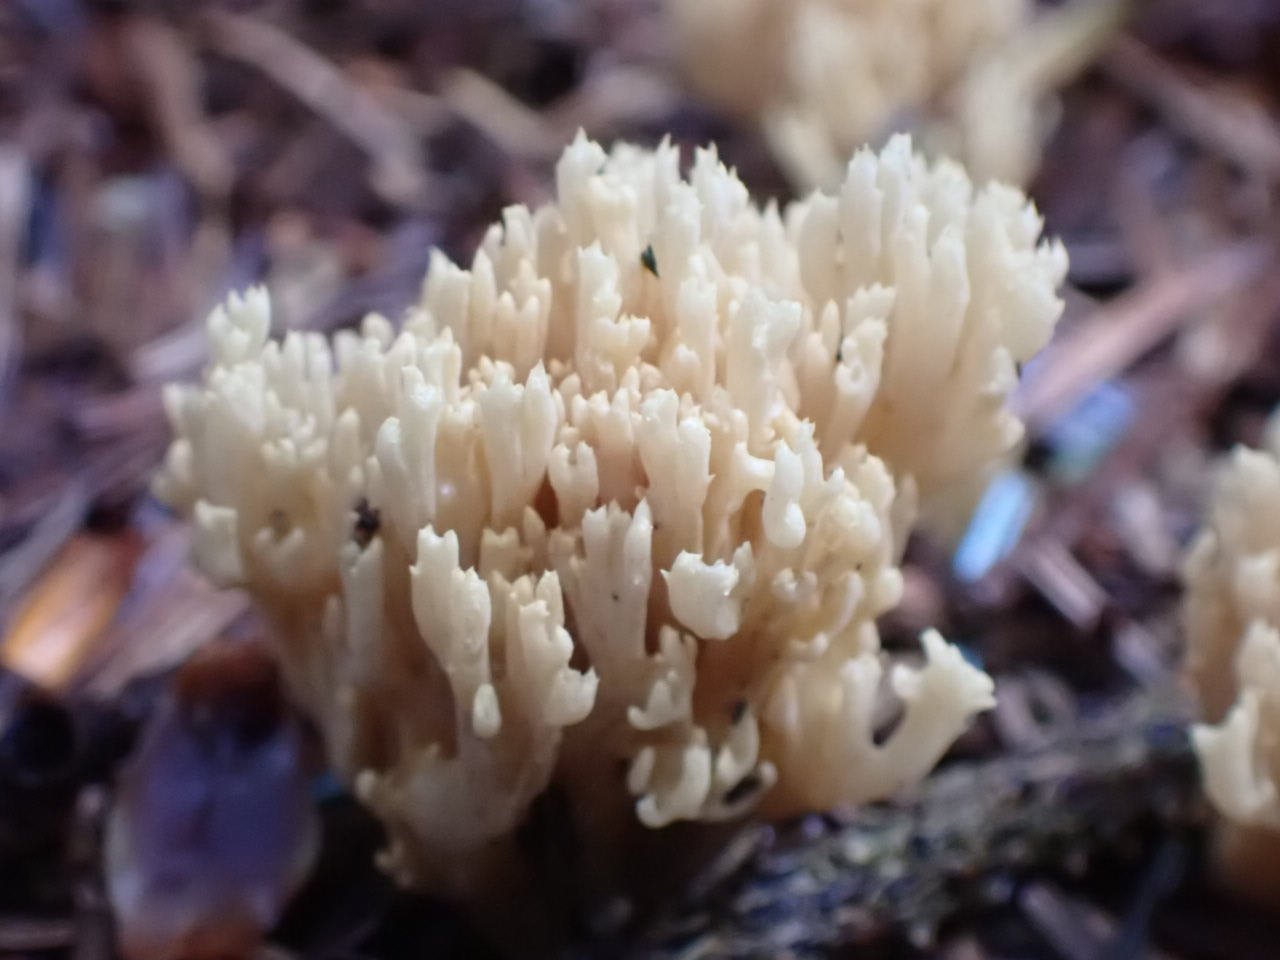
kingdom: Fungi
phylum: Basidiomycota
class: Agaricomycetes
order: Gomphales
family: Gomphaceae
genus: Phaeoclavulina
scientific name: Phaeoclavulina eumorpha
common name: gran-koralsvamp
